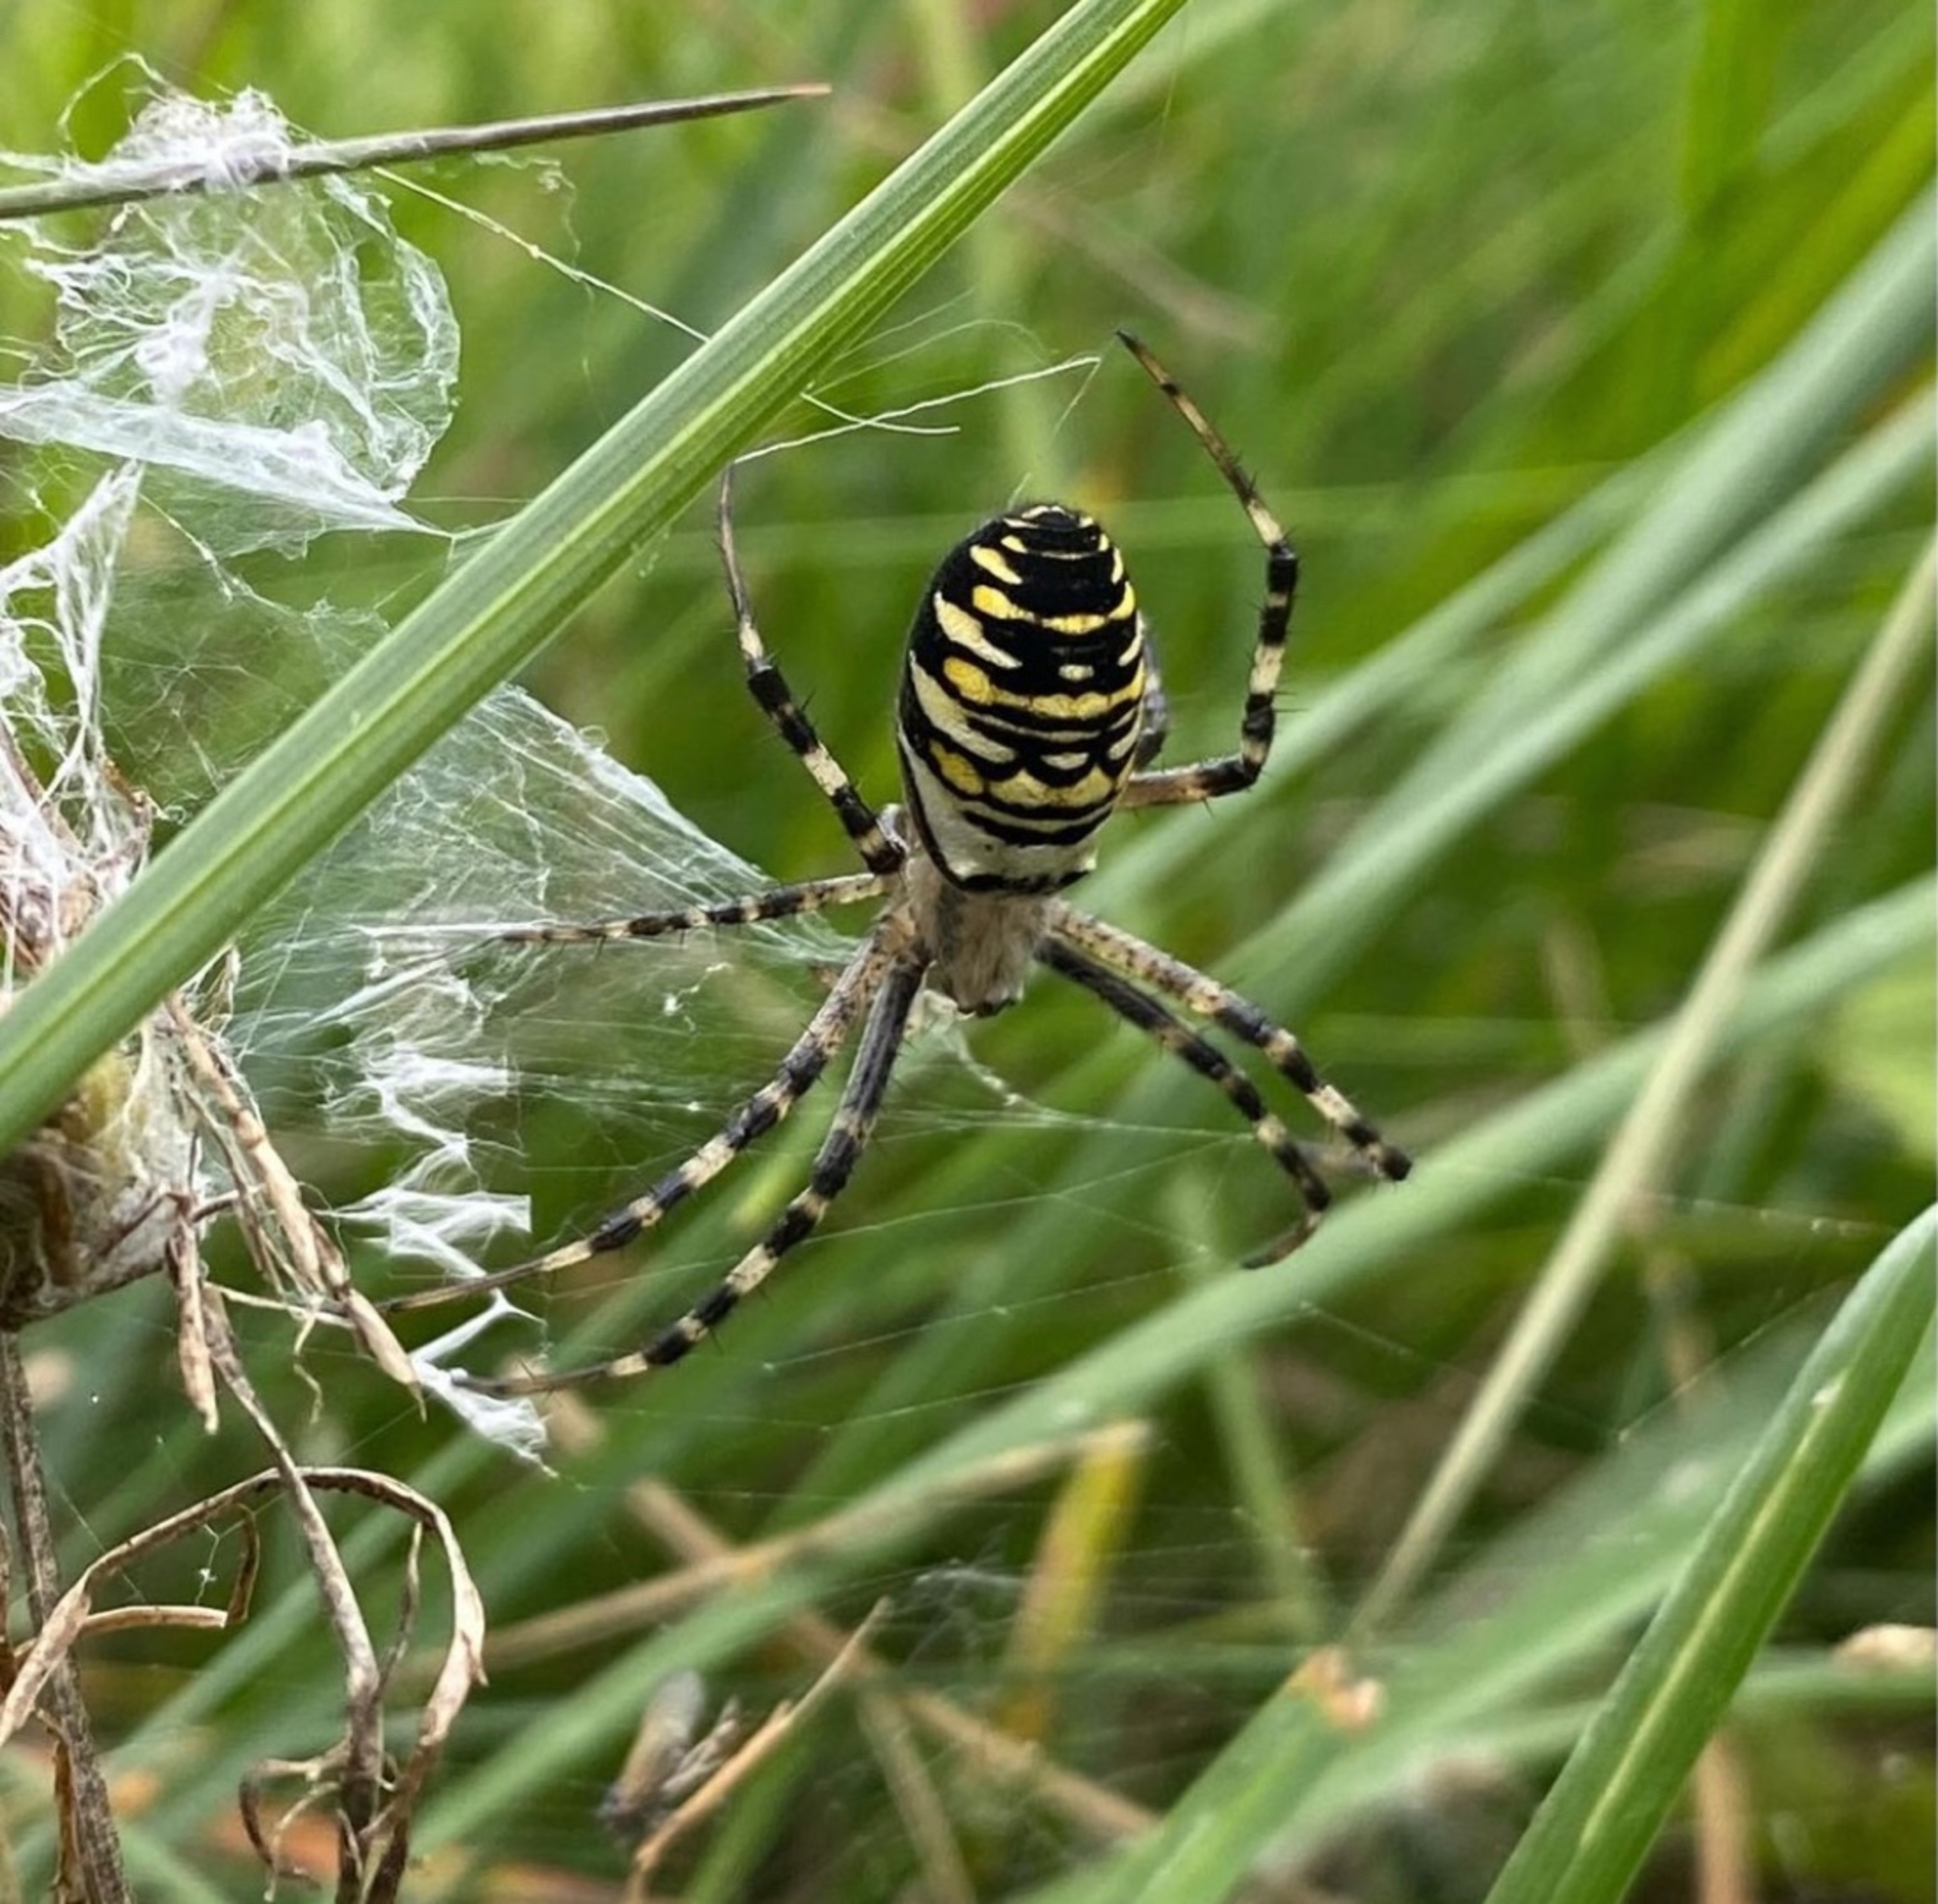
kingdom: Animalia
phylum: Arthropoda
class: Arachnida
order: Araneae
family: Araneidae
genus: Argiope
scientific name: Argiope bruennichi
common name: Hvepseedderkop
